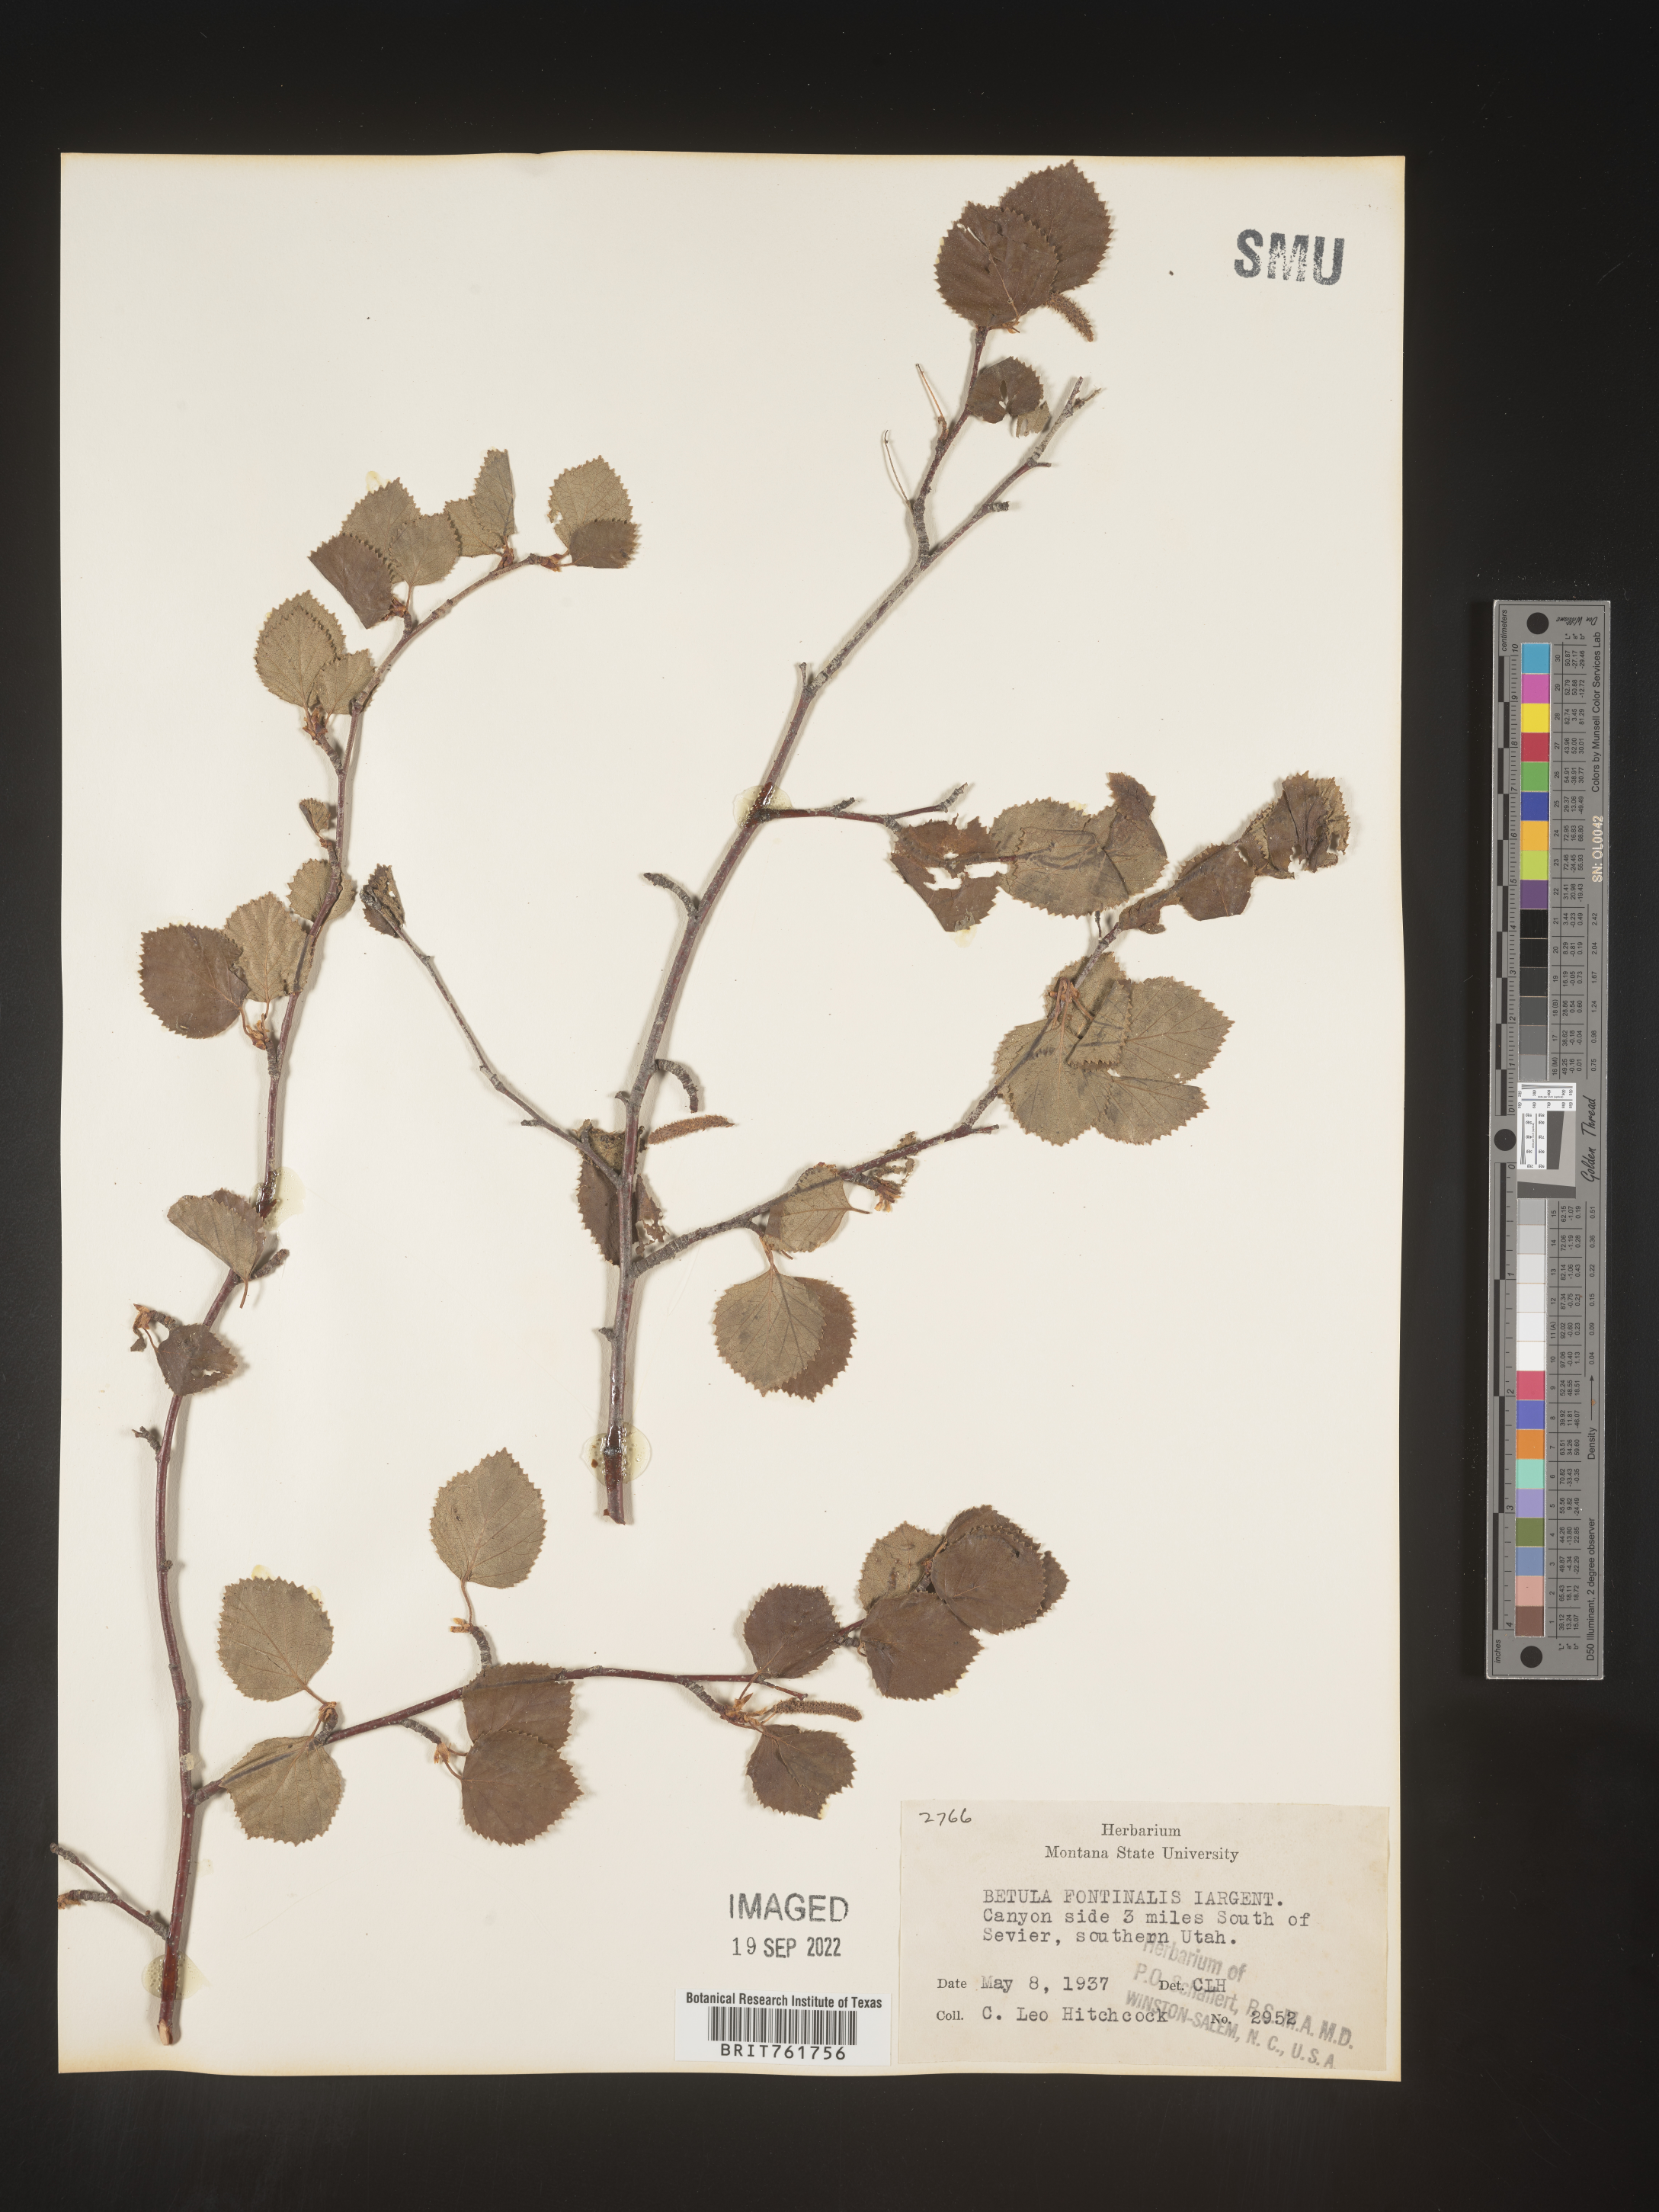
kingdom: Plantae
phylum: Tracheophyta
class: Magnoliopsida
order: Fagales
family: Betulaceae
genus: Betula
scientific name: Betula occidentalis
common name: River birch
